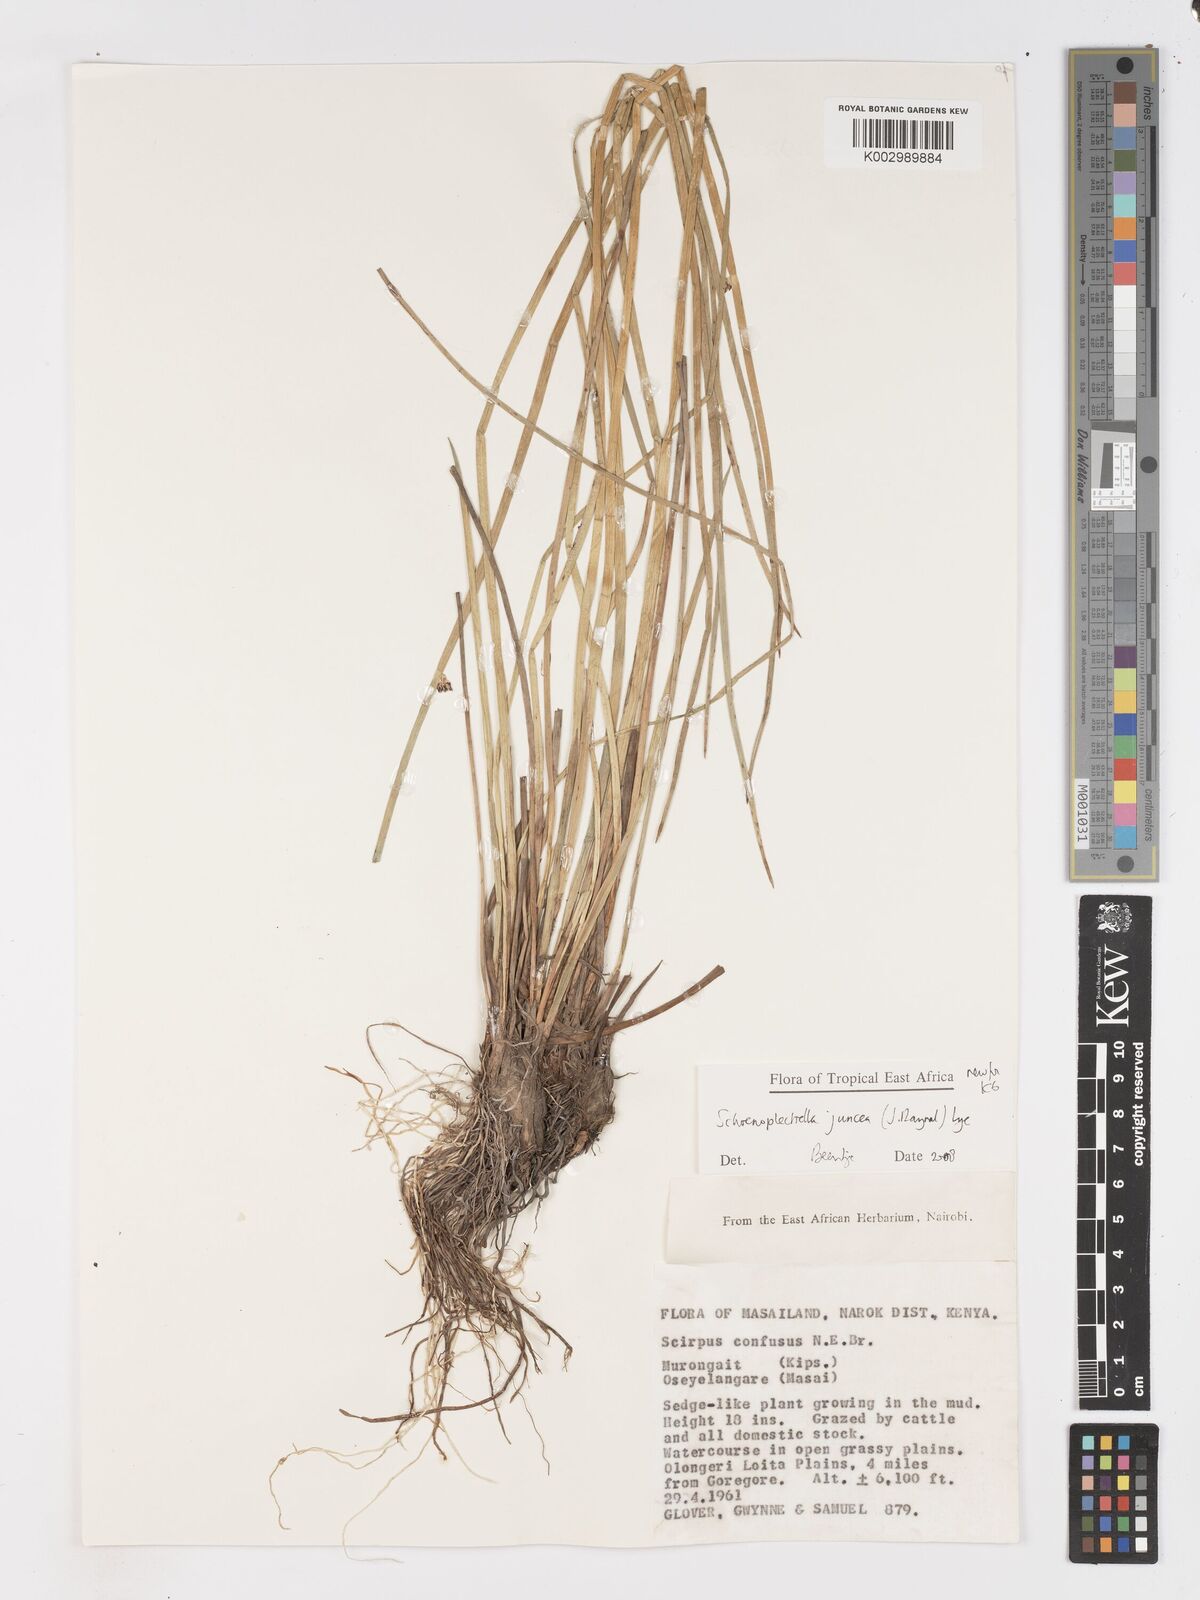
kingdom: Plantae
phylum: Tracheophyta
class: Liliopsida
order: Poales
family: Cyperaceae
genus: Schoenoplectiella
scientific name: Schoenoplectiella juncea
